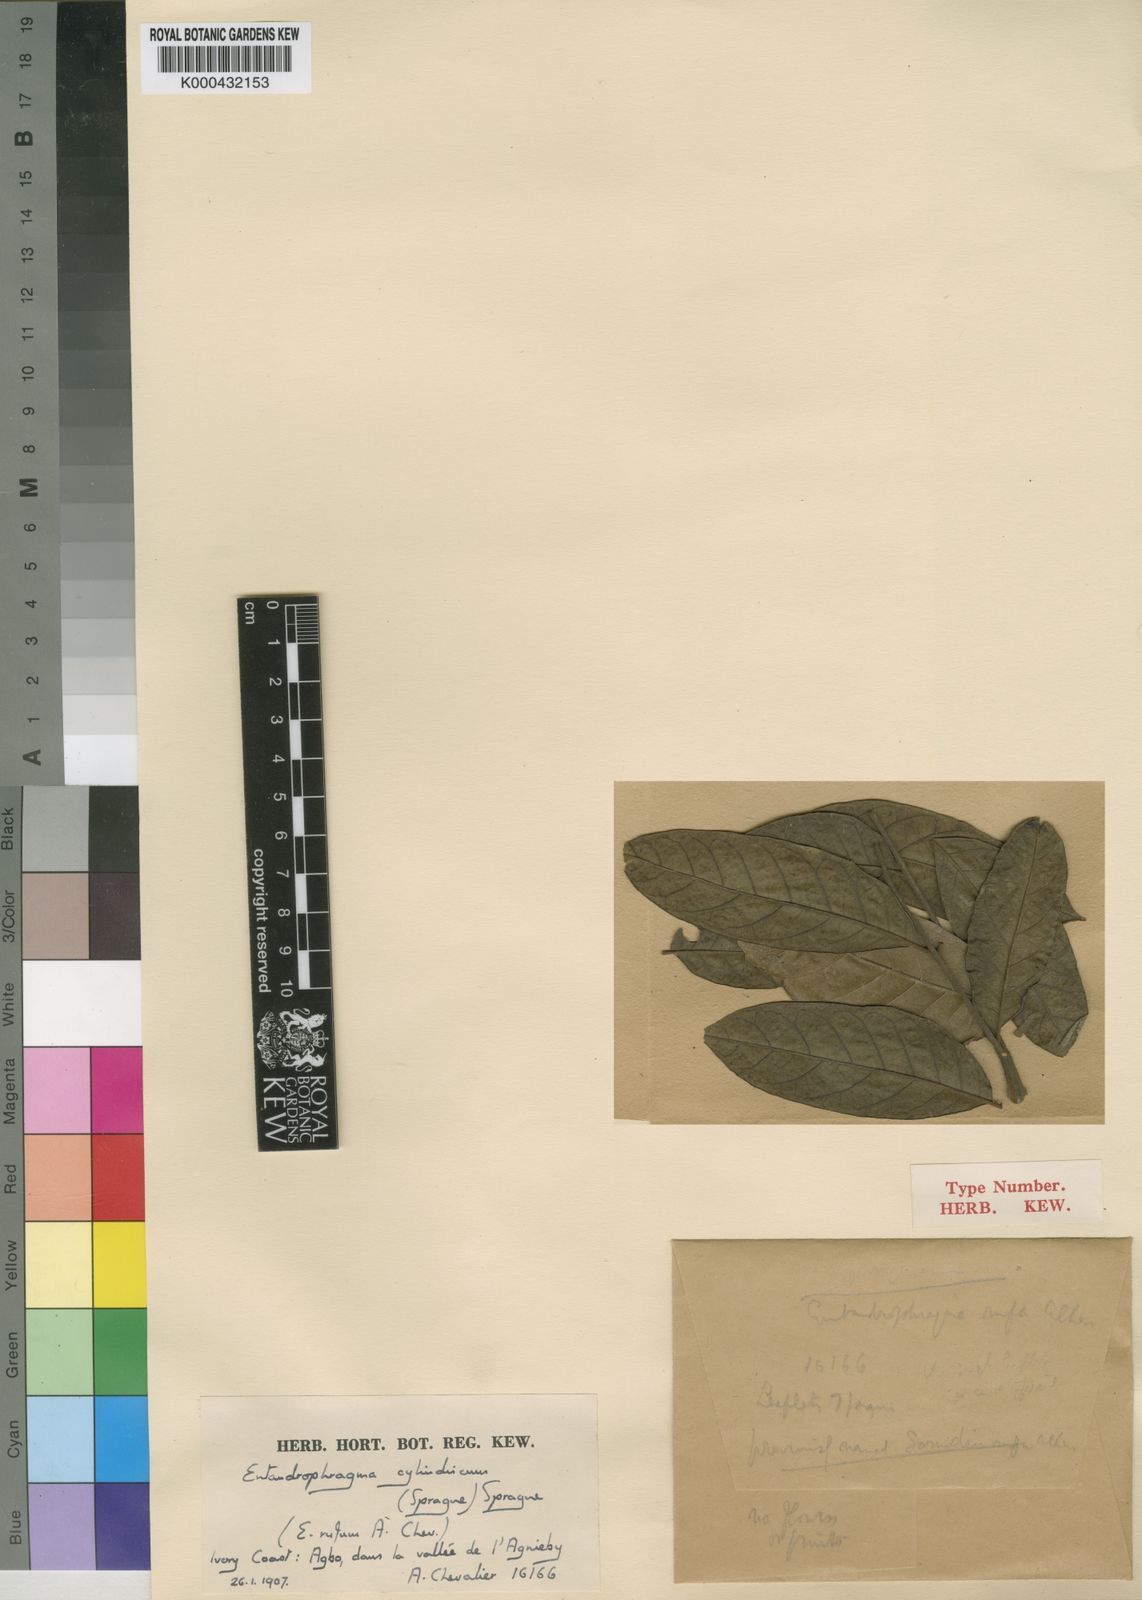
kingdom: Plantae
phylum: Tracheophyta
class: Magnoliopsida
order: Sapindales
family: Meliaceae
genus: Entandrophragma
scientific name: Entandrophragma cylindricum
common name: Sapele
